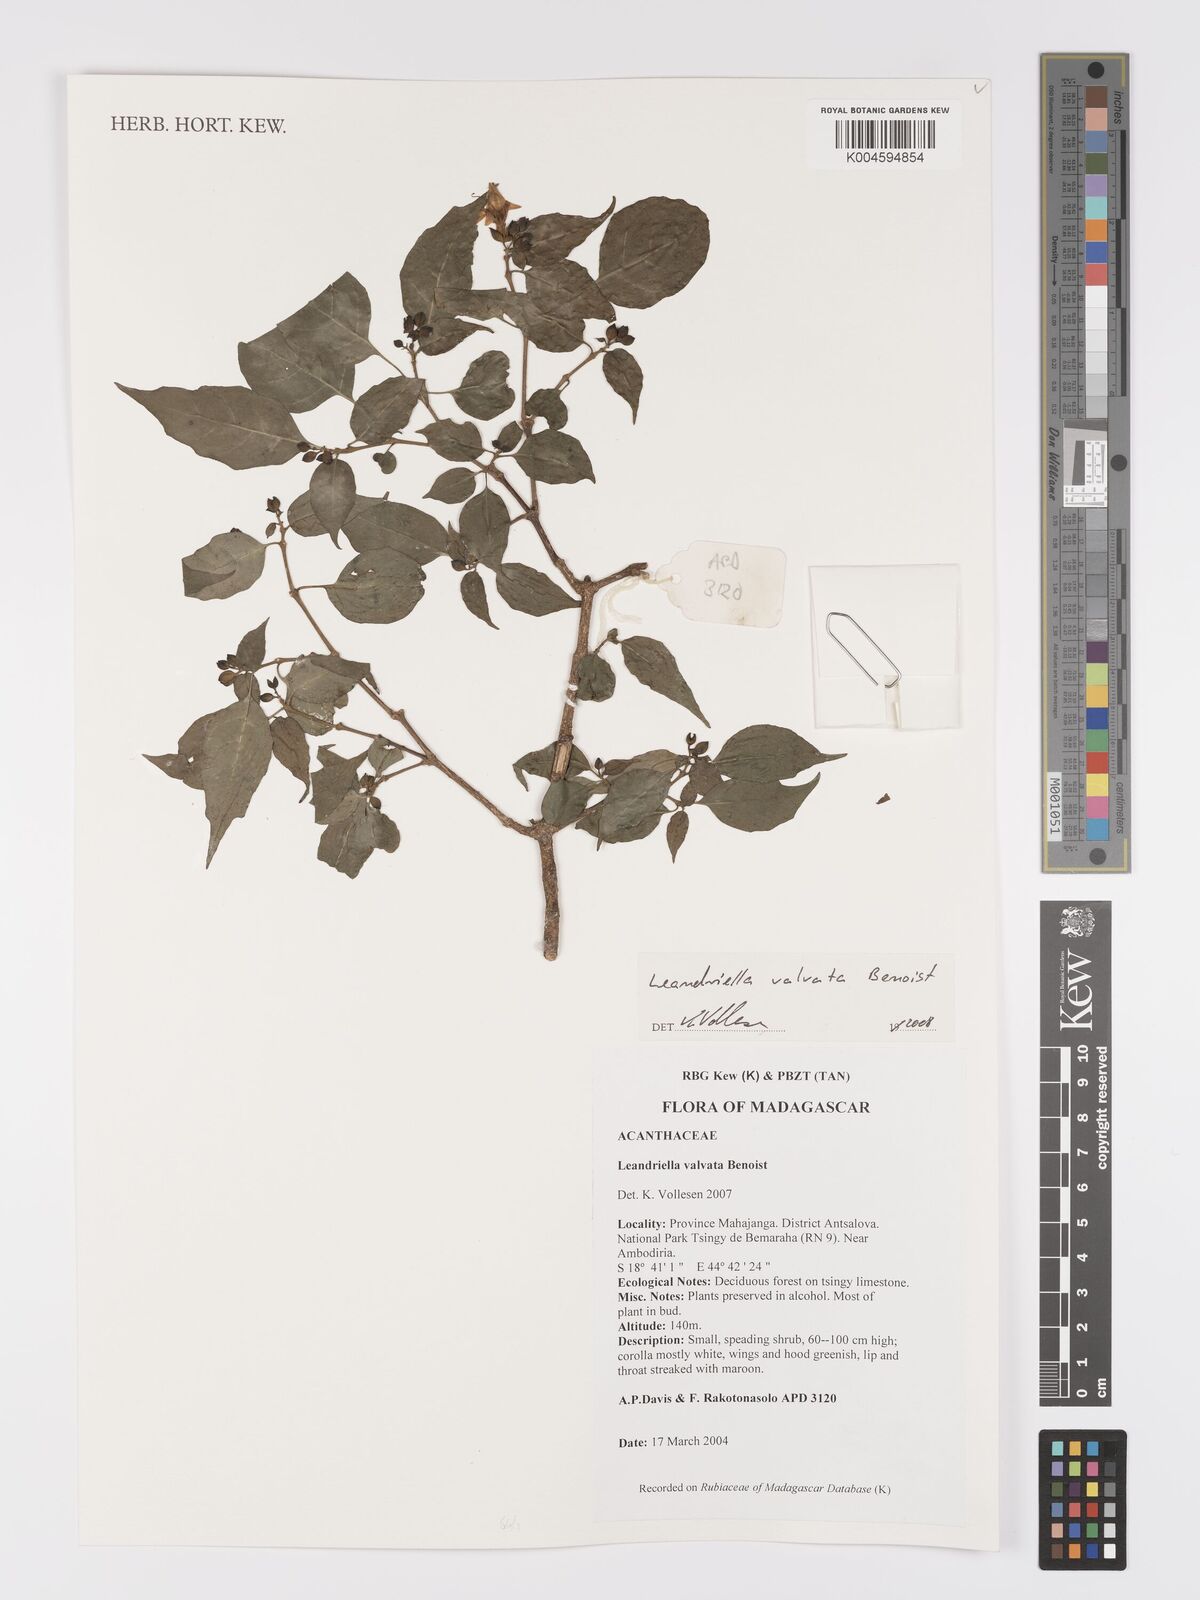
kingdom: Plantae
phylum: Tracheophyta
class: Magnoliopsida
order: Lamiales
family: Acanthaceae
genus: Leandriella
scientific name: Leandriella valvata
